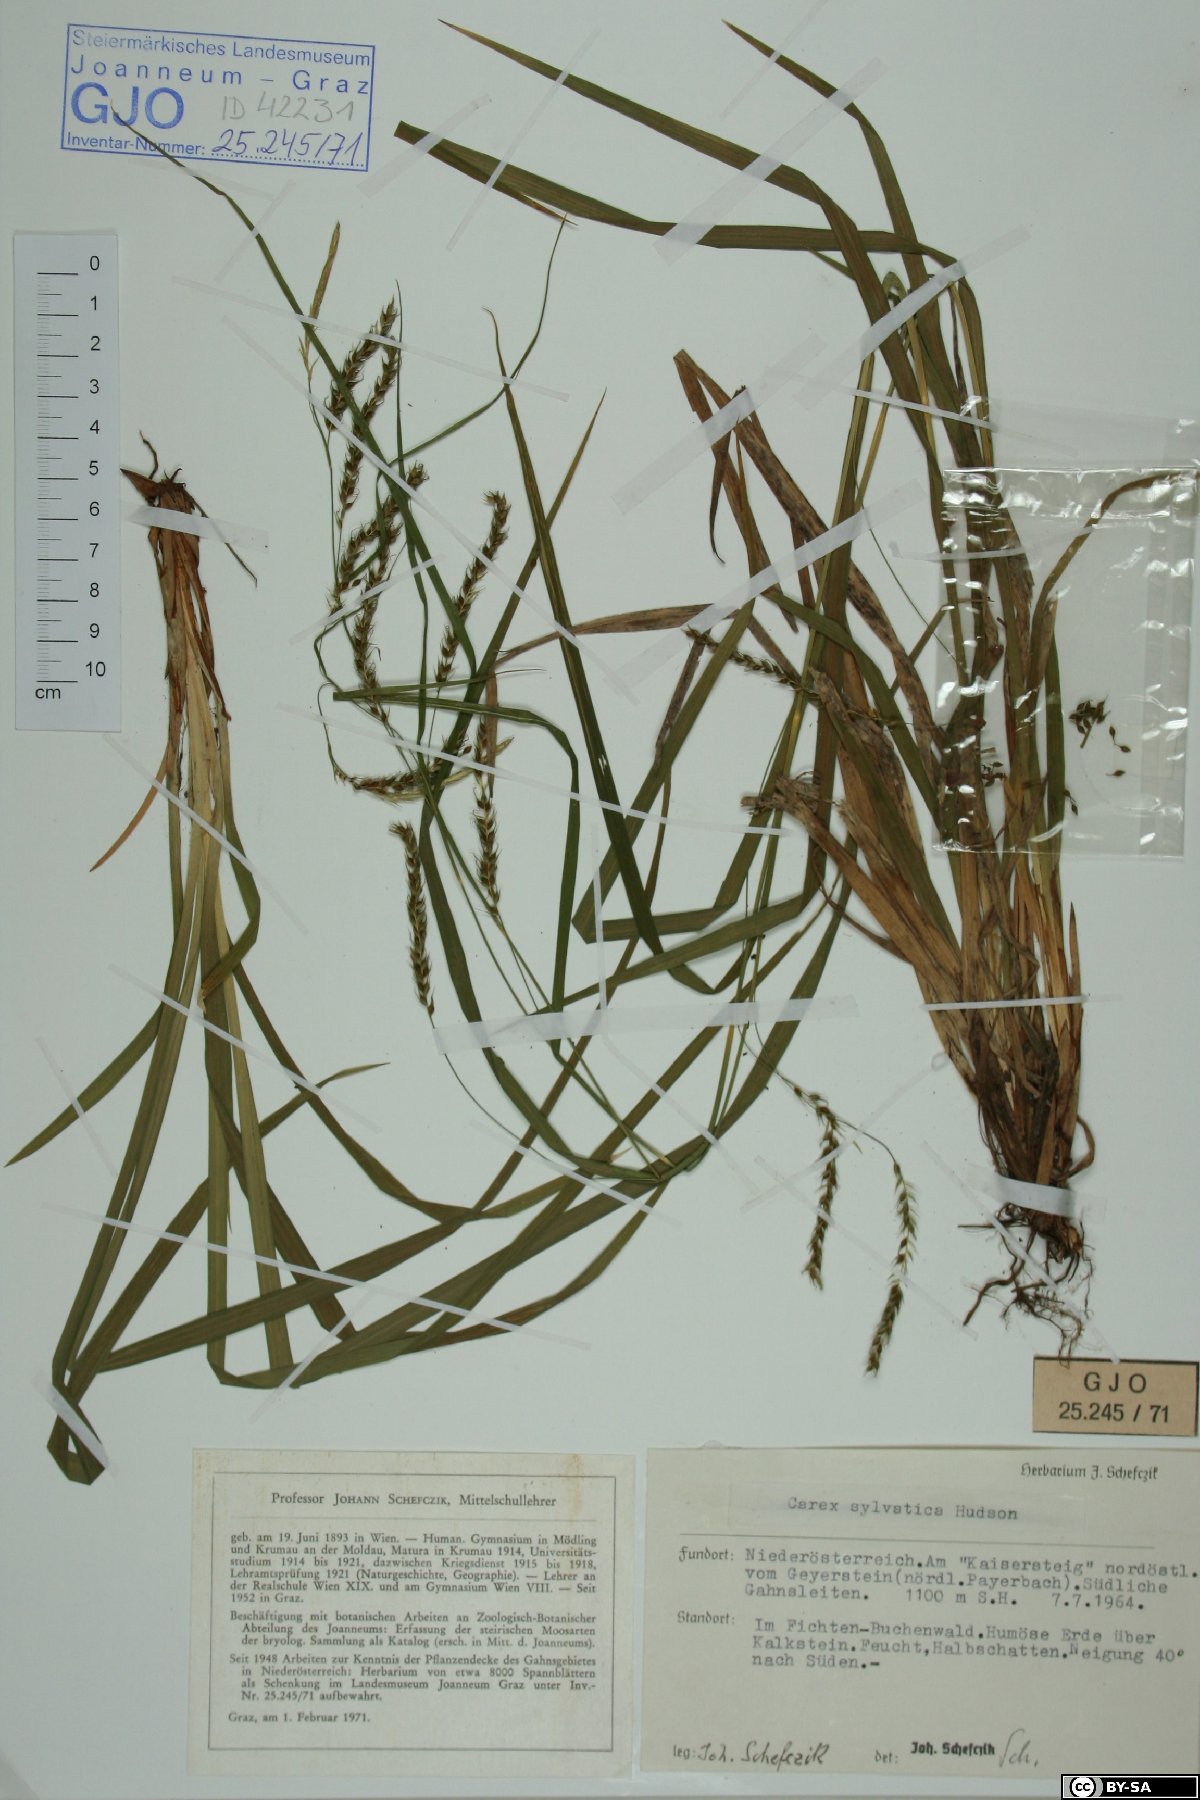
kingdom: Plantae
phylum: Tracheophyta
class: Liliopsida
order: Poales
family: Cyperaceae
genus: Carex
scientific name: Carex sylvatica
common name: Wood-sedge
